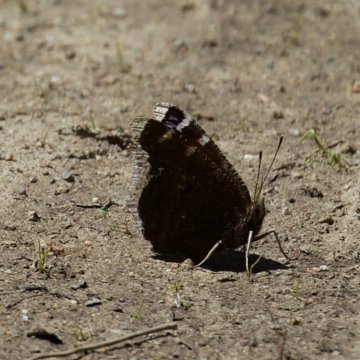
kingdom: Animalia
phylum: Arthropoda
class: Insecta
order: Lepidoptera
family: Nymphalidae
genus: Nymphalis
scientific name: Nymphalis antiopa
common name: Mourning Cloak
